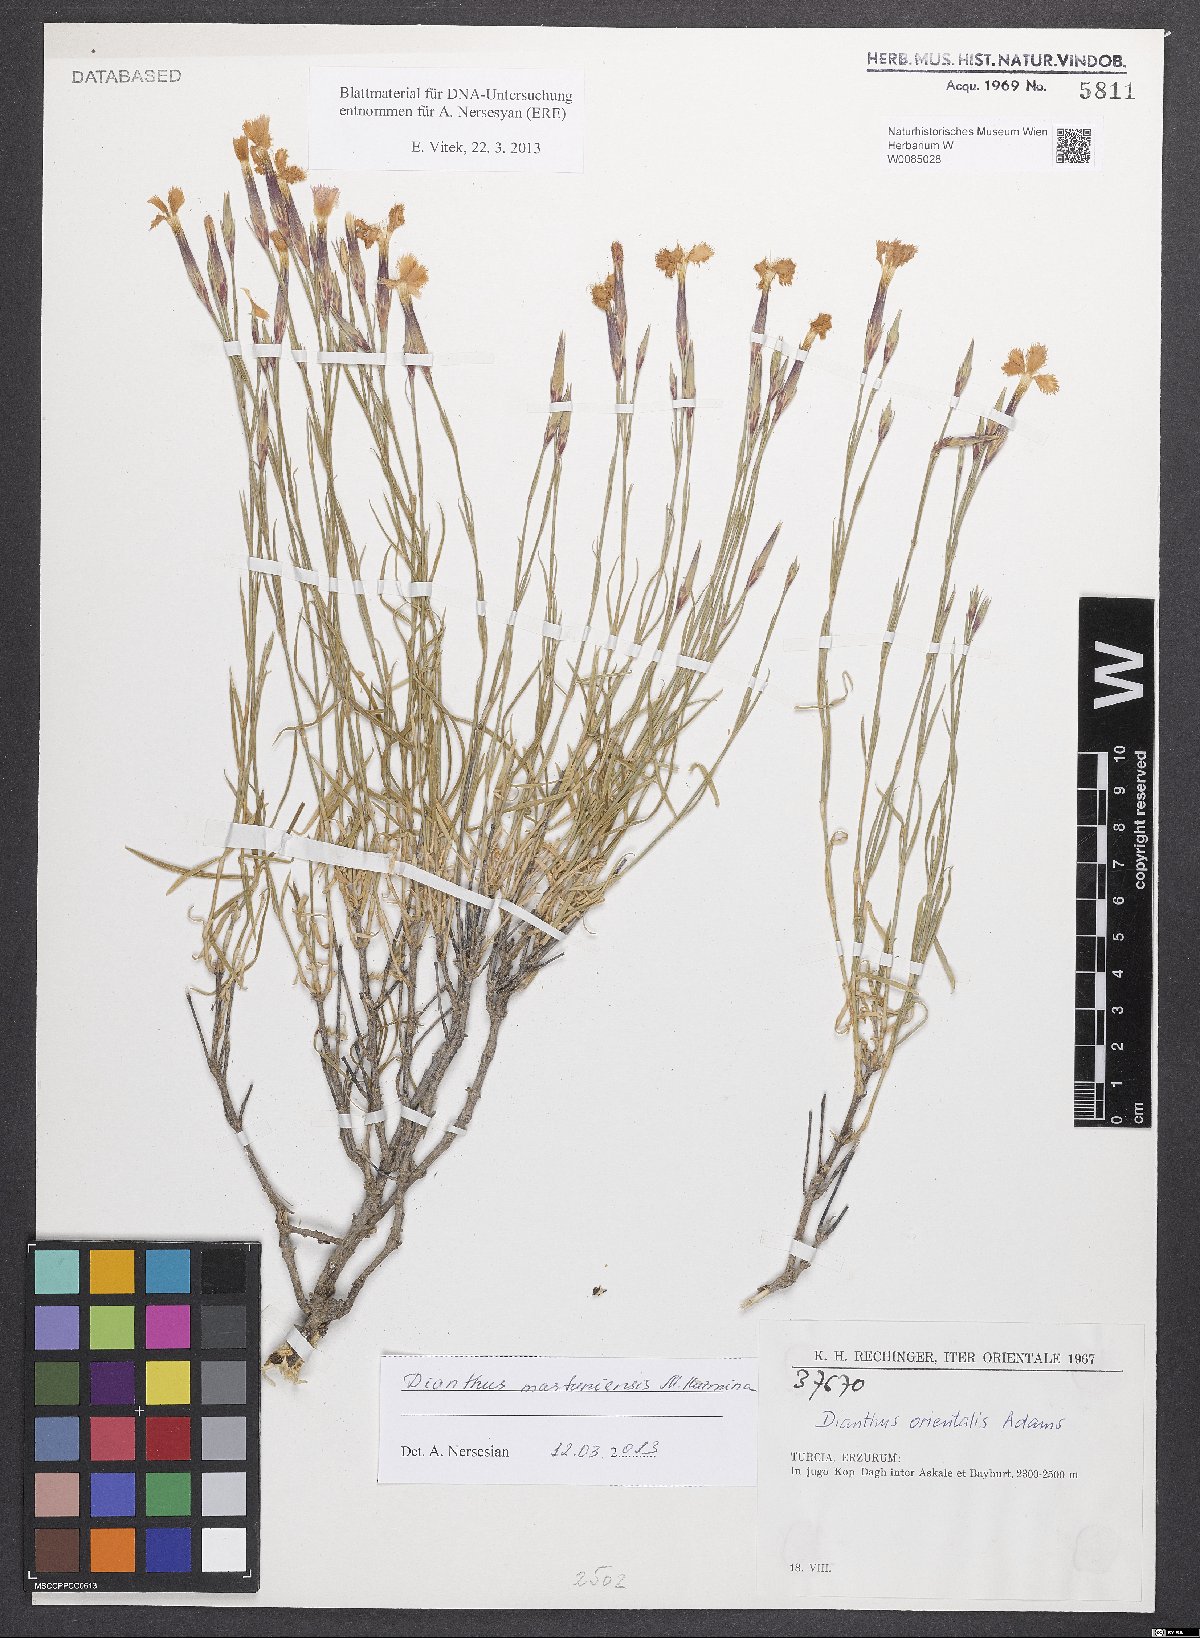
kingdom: Plantae
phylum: Tracheophyta
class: Magnoliopsida
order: Caryophyllales
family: Caryophyllaceae
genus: Dianthus
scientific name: Dianthus martuniensis
